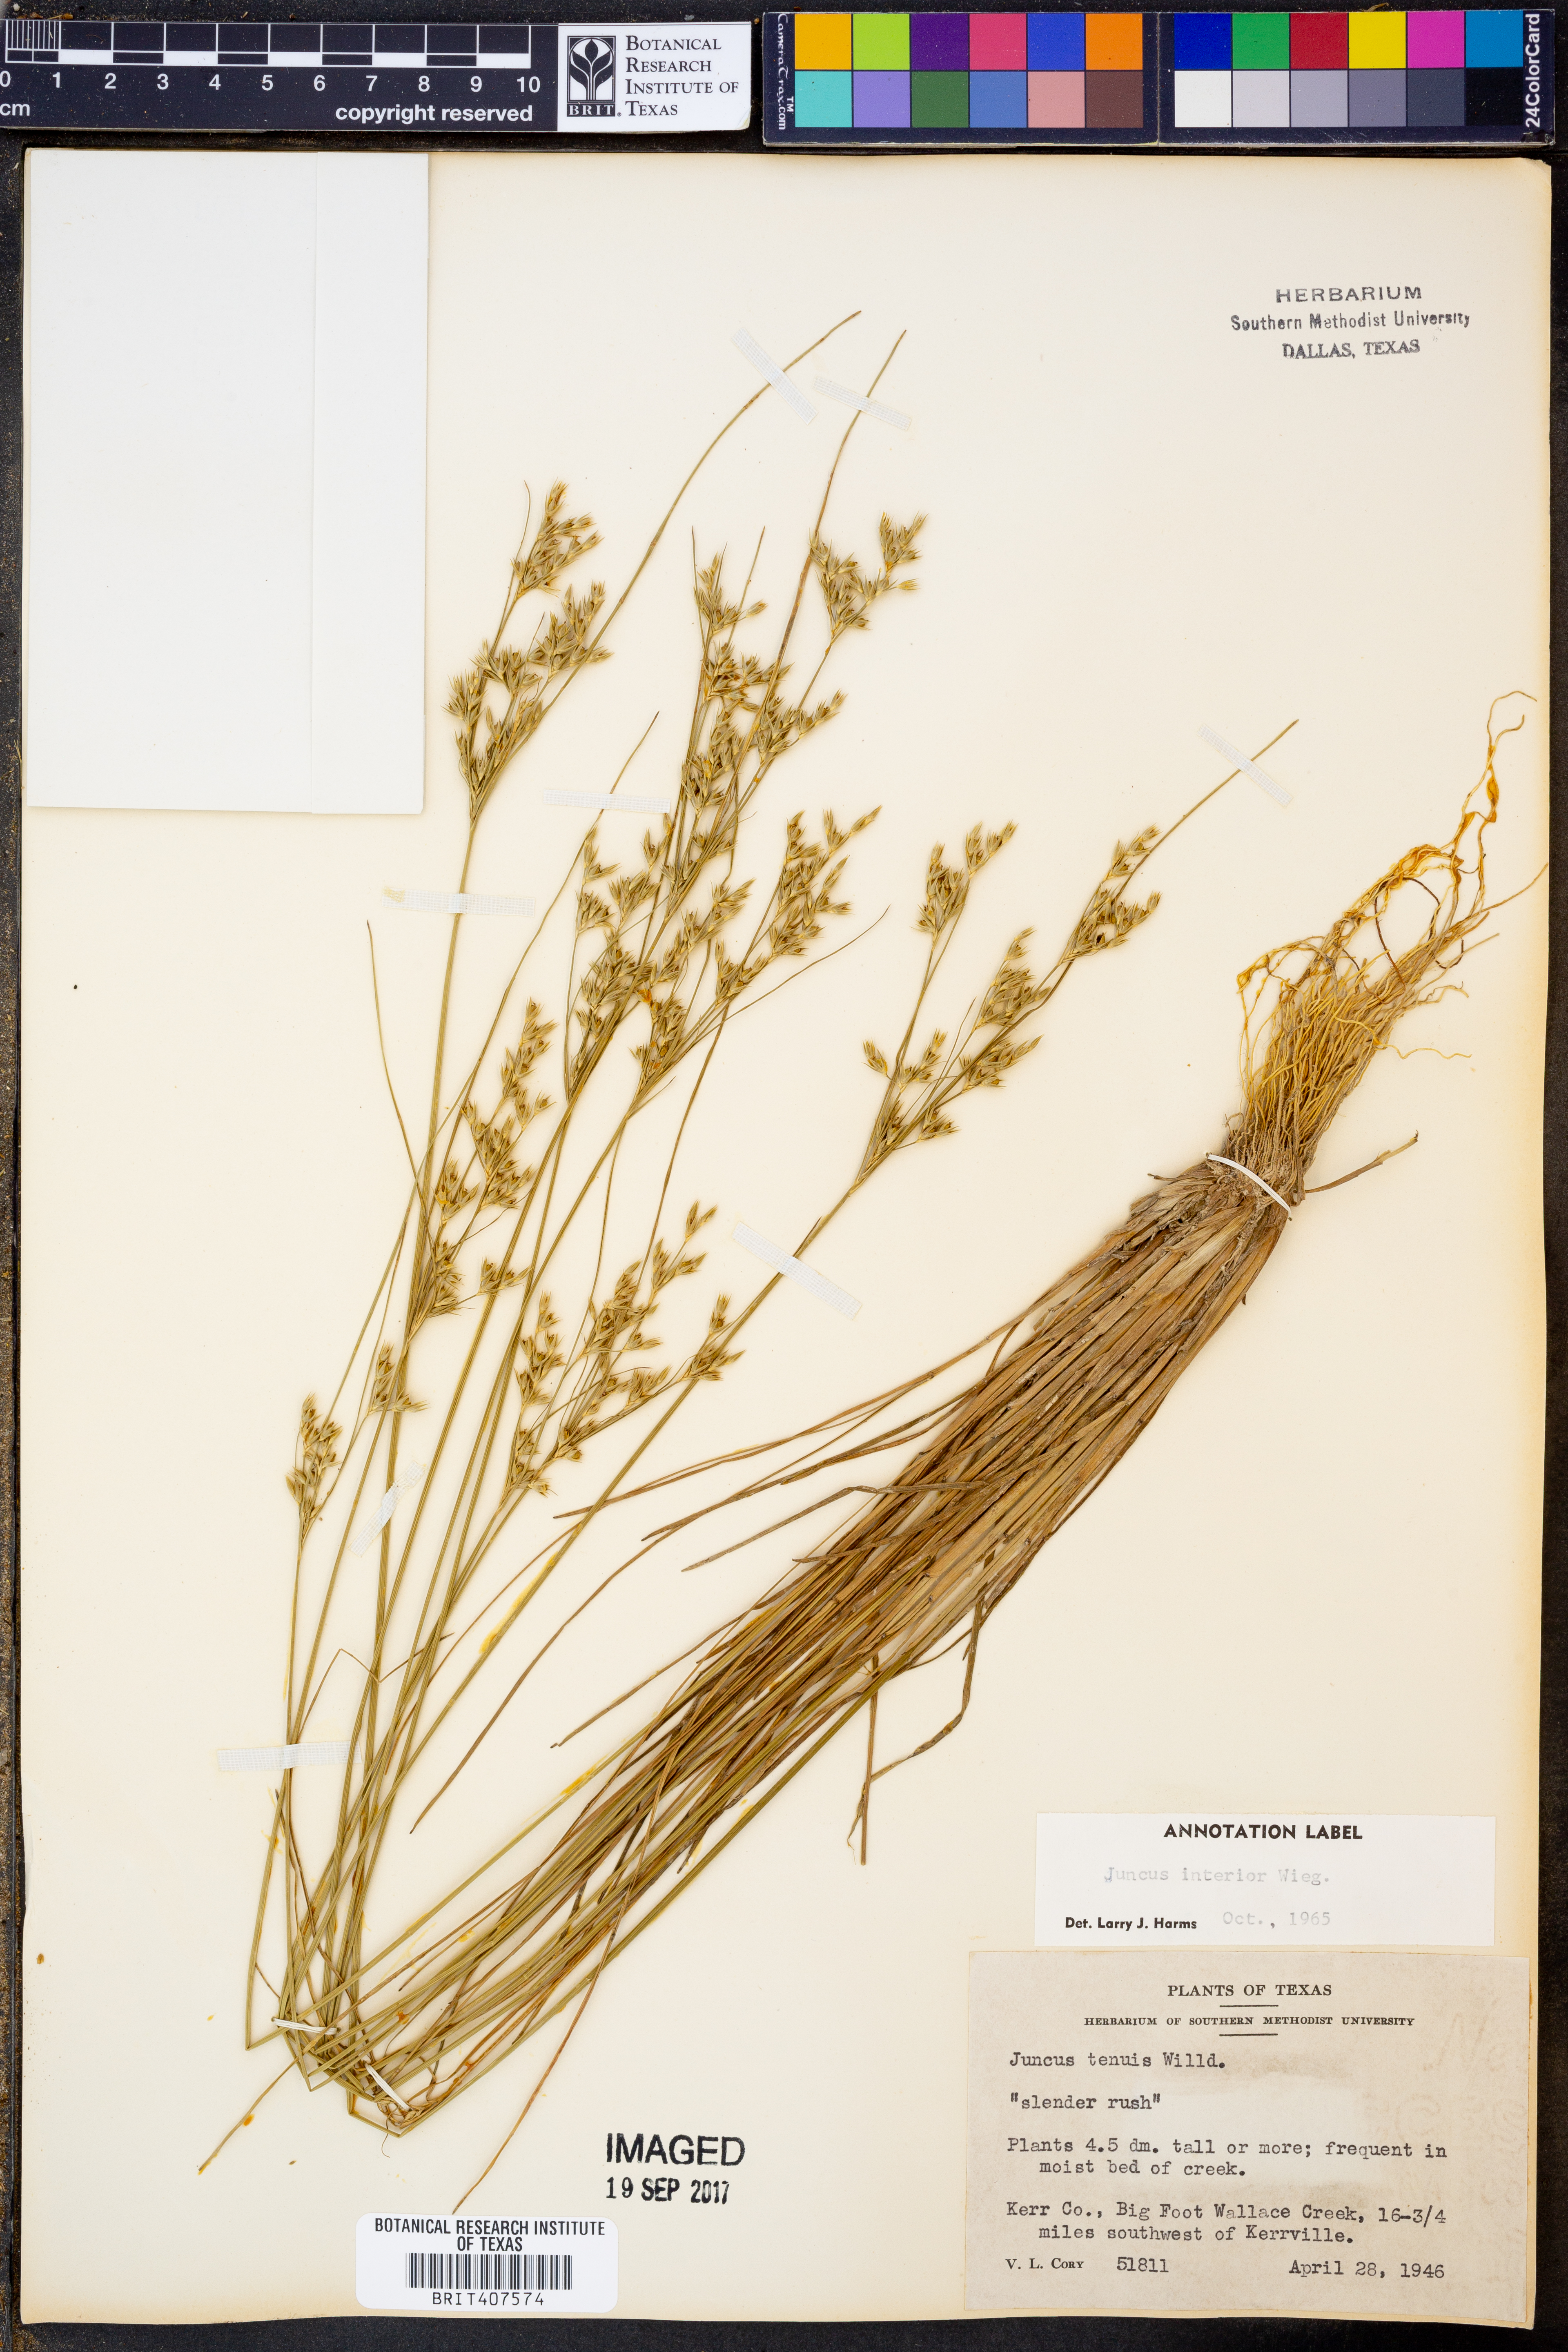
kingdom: Plantae
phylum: Tracheophyta
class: Liliopsida
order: Poales
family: Juncaceae
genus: Juncus
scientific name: Juncus interior
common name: Interior rush
